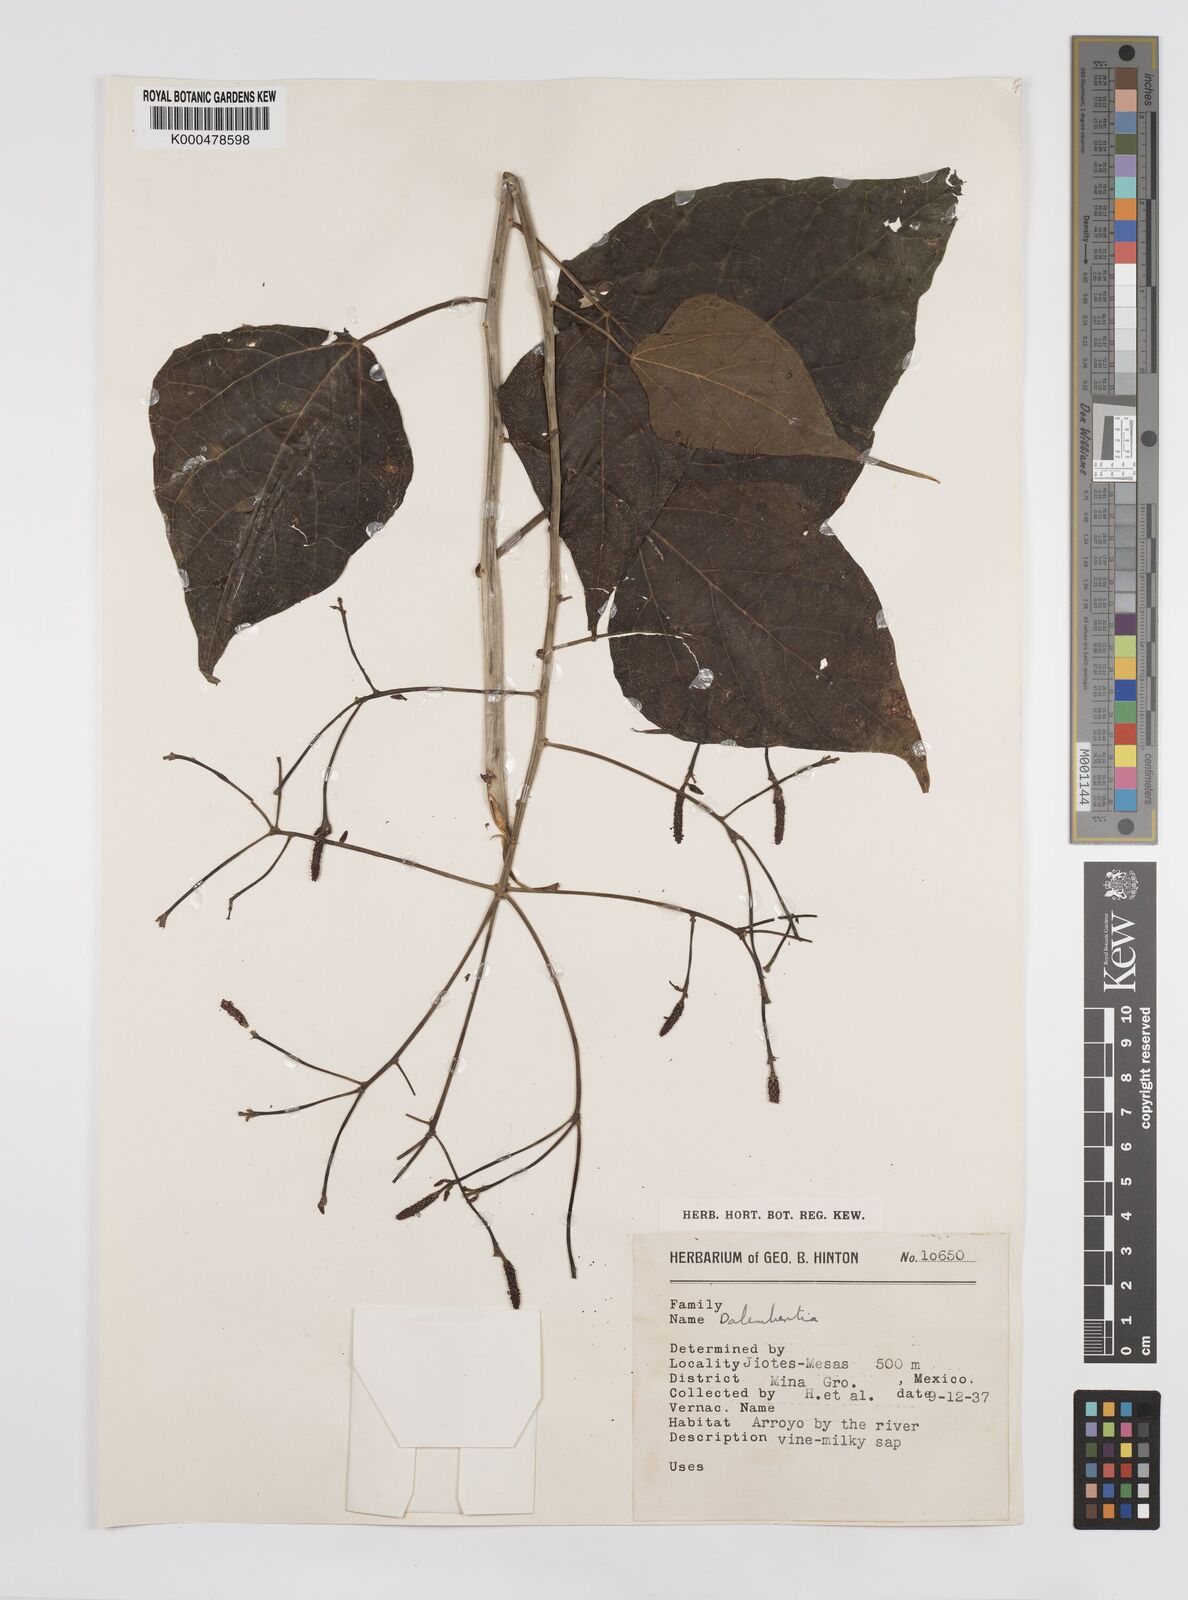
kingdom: Plantae
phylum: Tracheophyta
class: Magnoliopsida
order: Malpighiales
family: Euphorbiaceae
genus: Dalembertia
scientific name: Dalembertia
